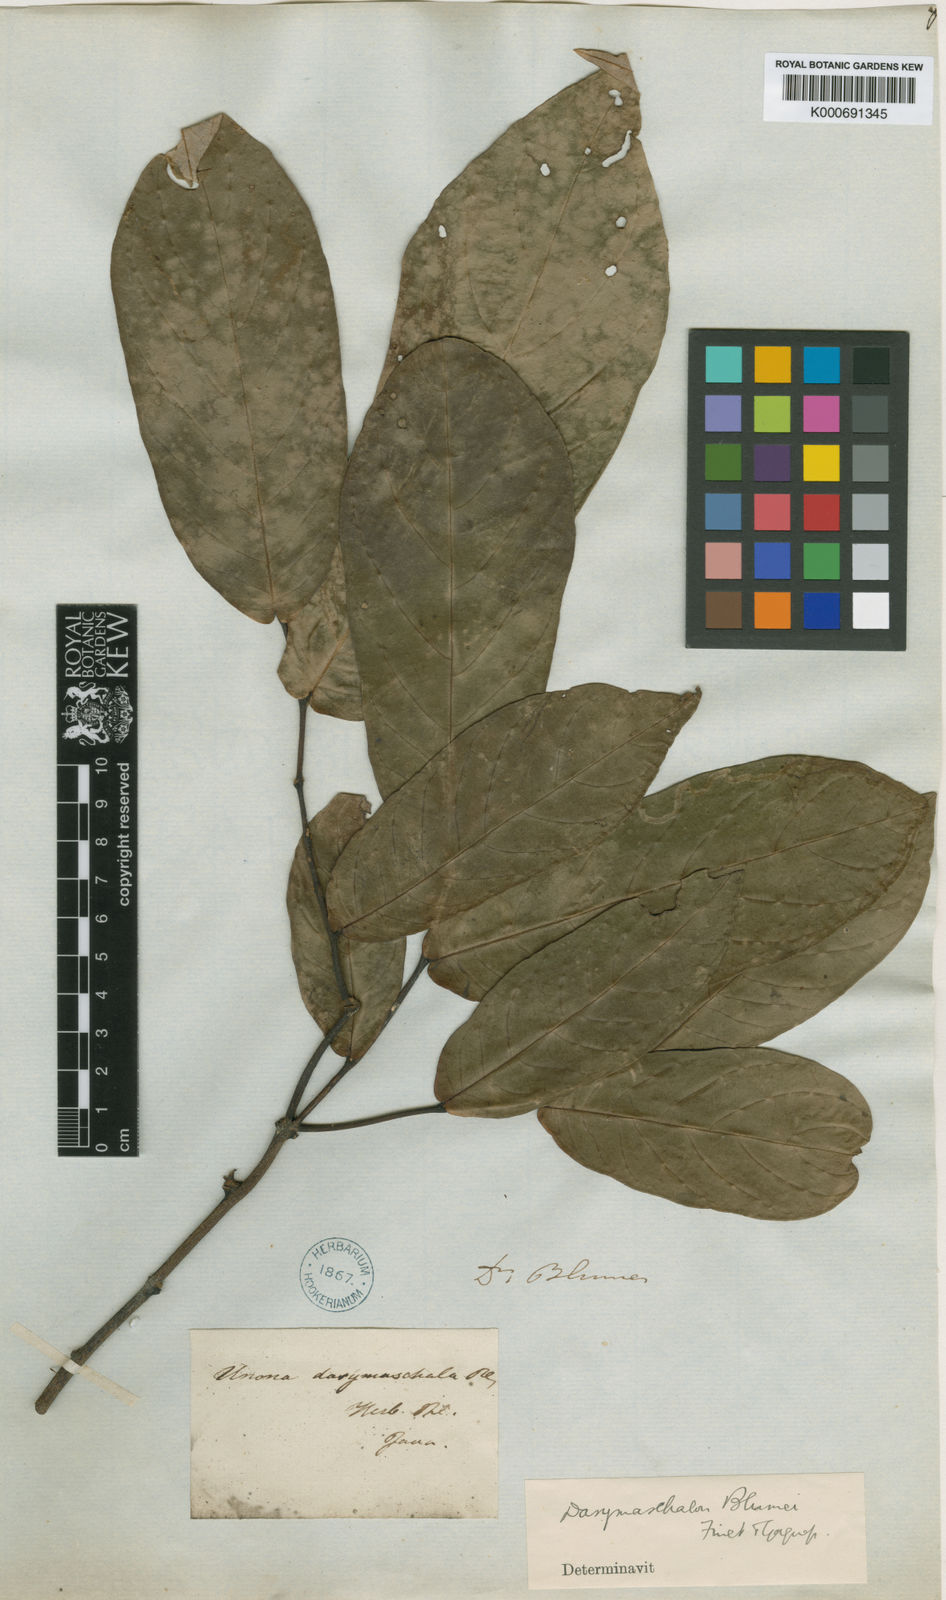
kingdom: Plantae
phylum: Tracheophyta
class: Magnoliopsida
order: Magnoliales
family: Annonaceae
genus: Dasymaschalon
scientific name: Dasymaschalon dasymaschalum
